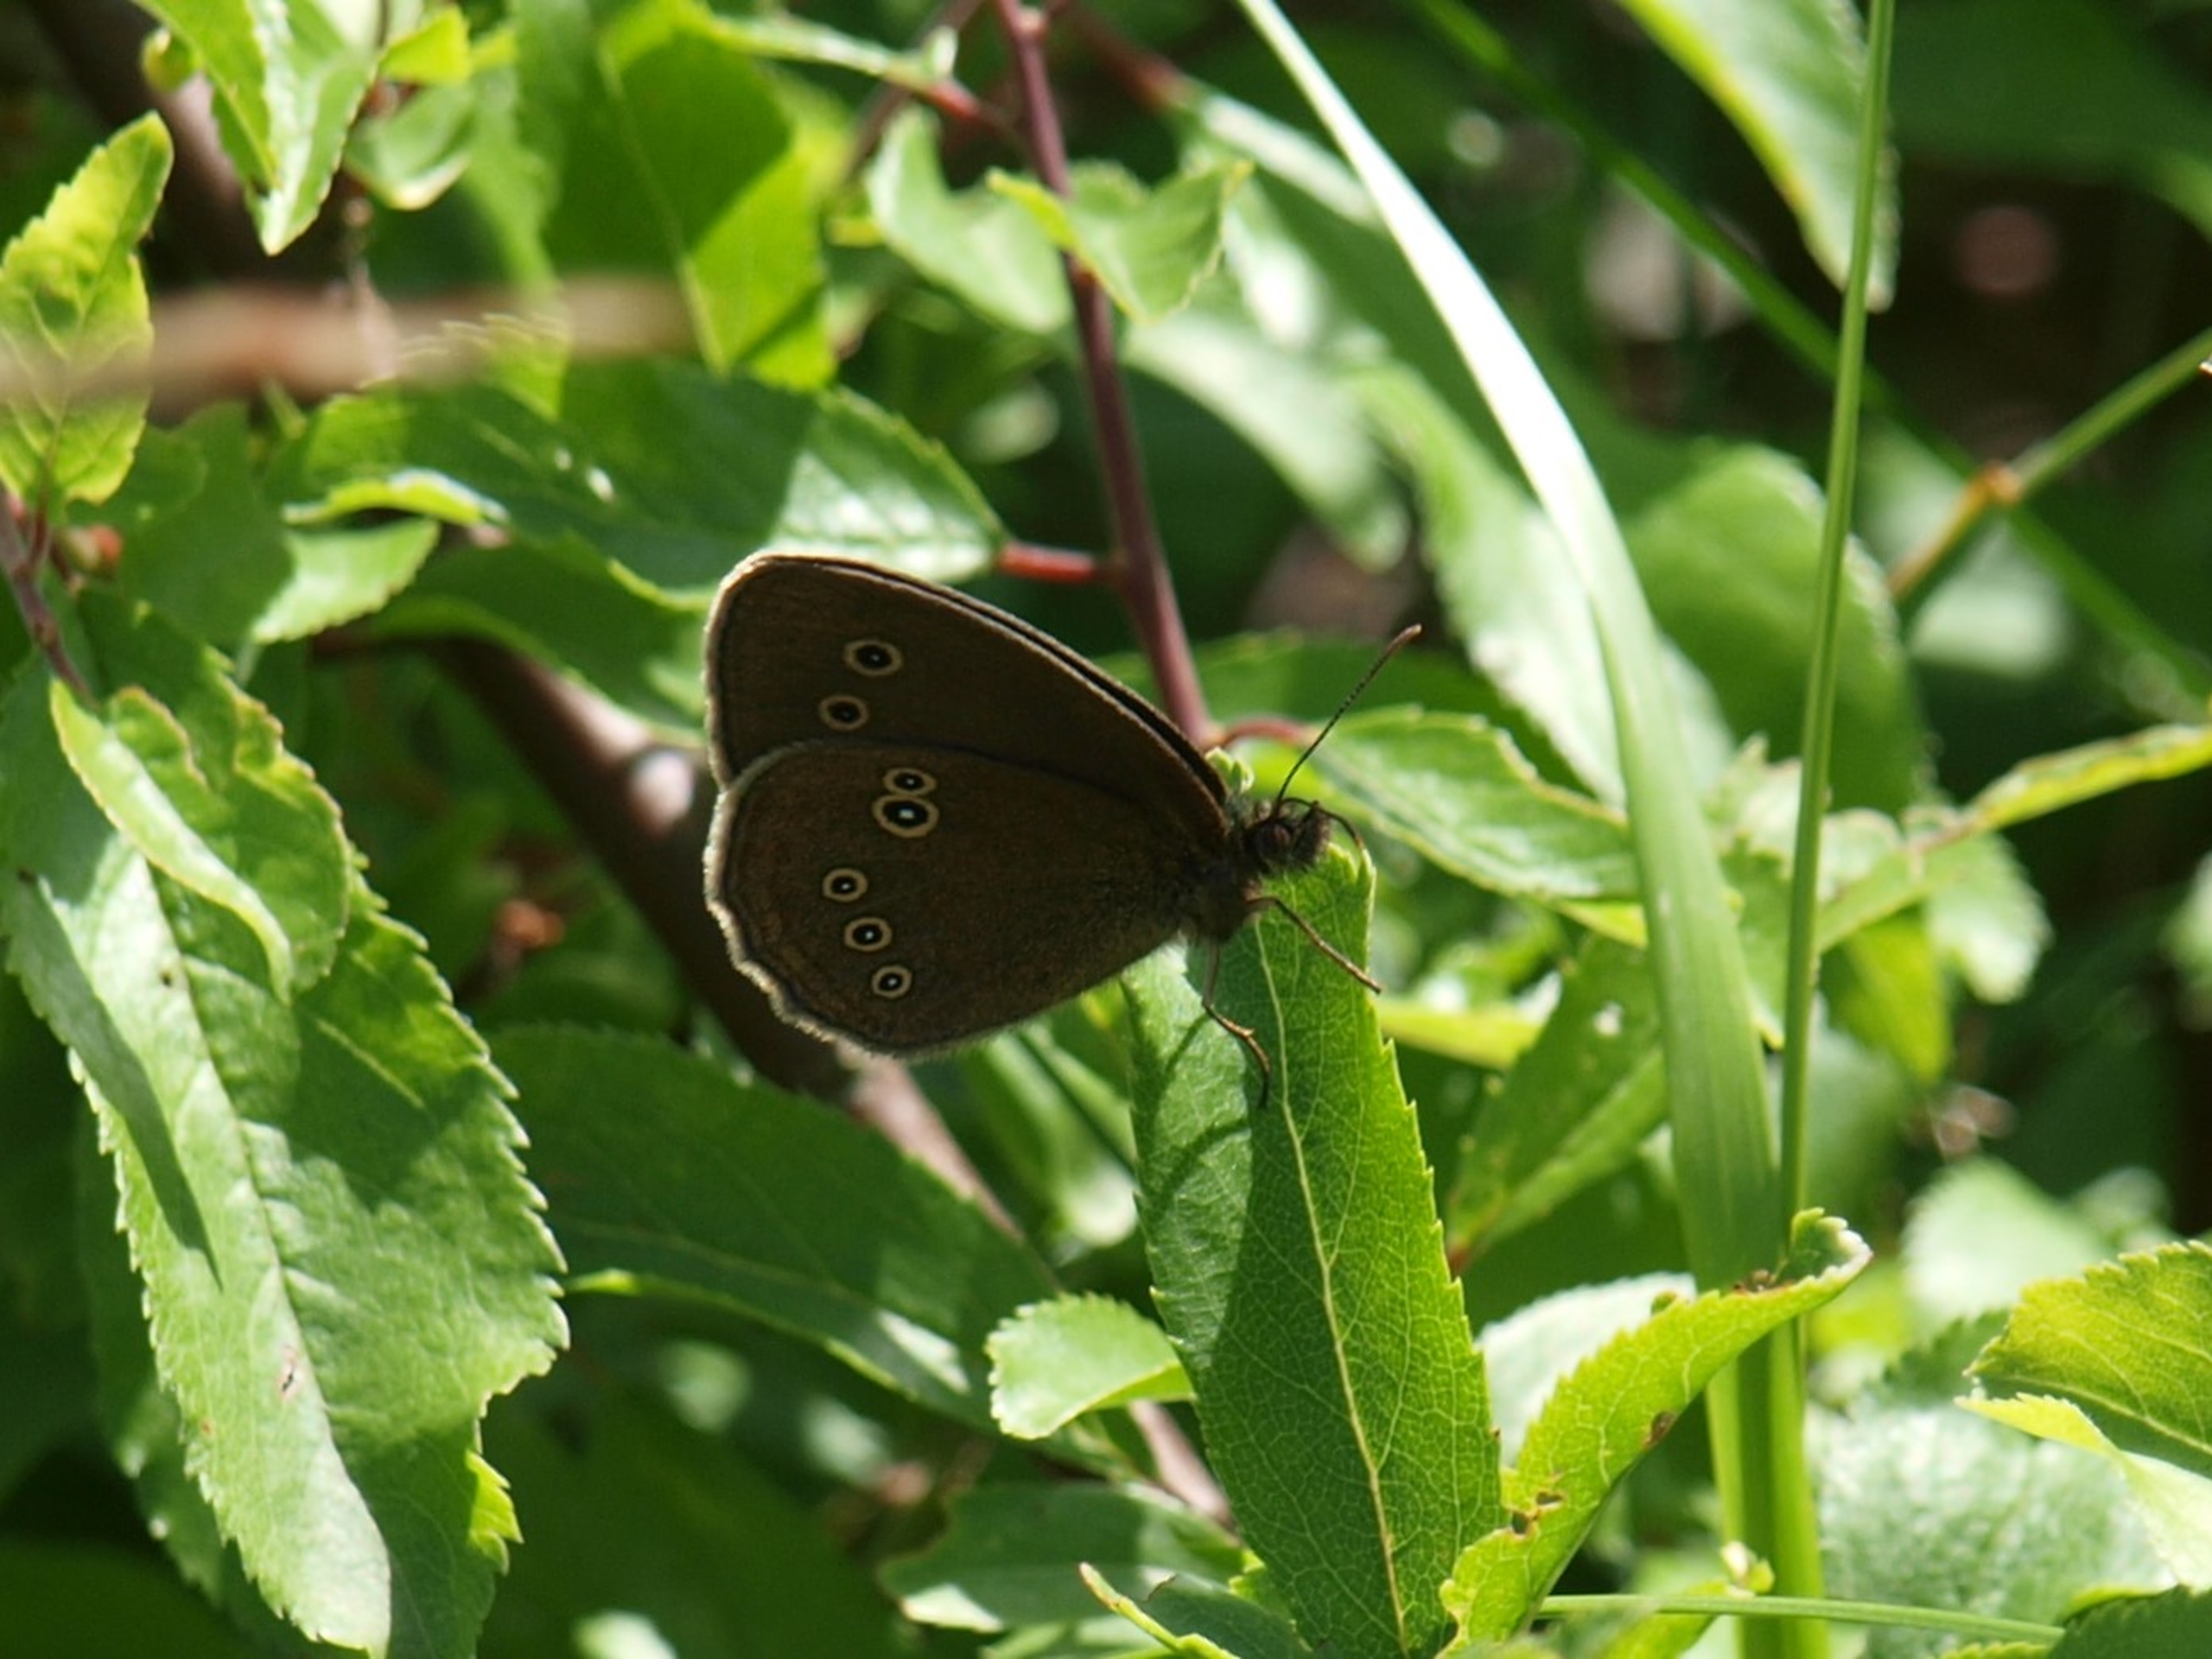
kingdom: Animalia
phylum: Arthropoda
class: Insecta
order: Lepidoptera
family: Nymphalidae
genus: Aphantopus
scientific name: Aphantopus hyperantus
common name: Engrandøje
